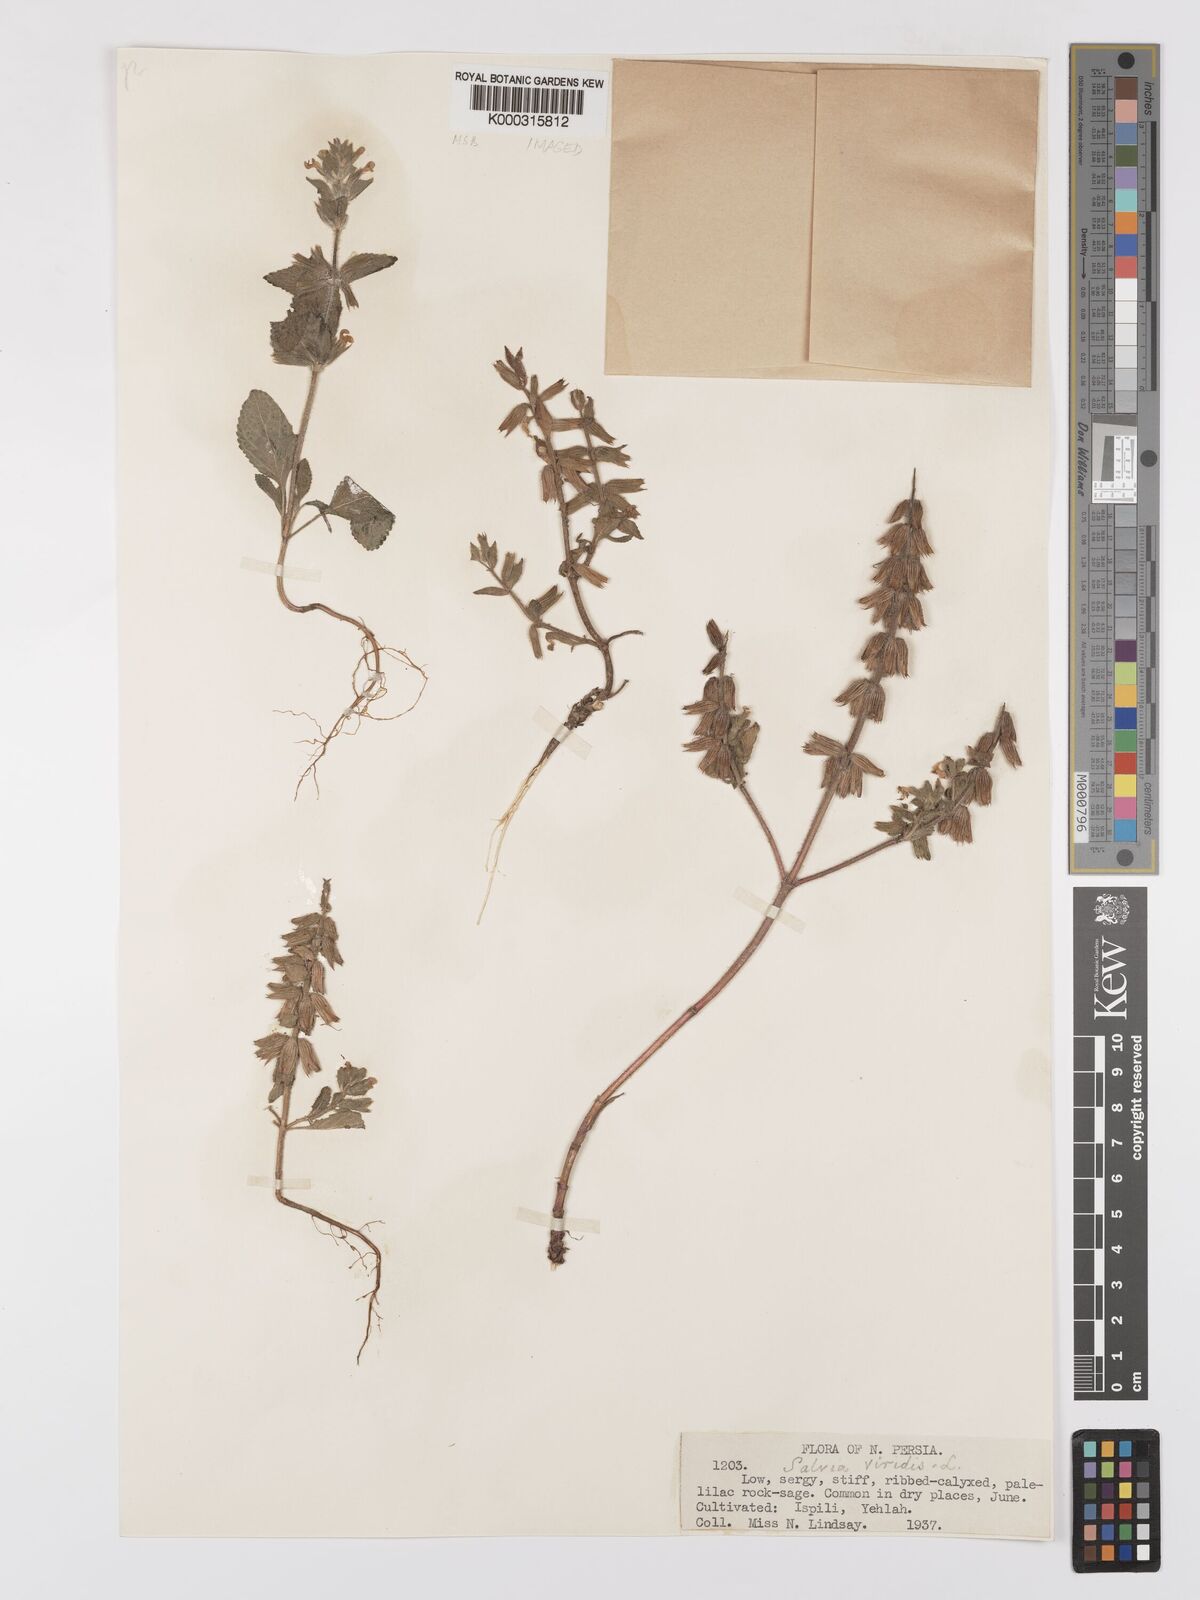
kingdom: Plantae
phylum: Tracheophyta
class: Magnoliopsida
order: Lamiales
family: Lamiaceae
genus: Salvia
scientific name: Salvia viridis
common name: Annual clary
